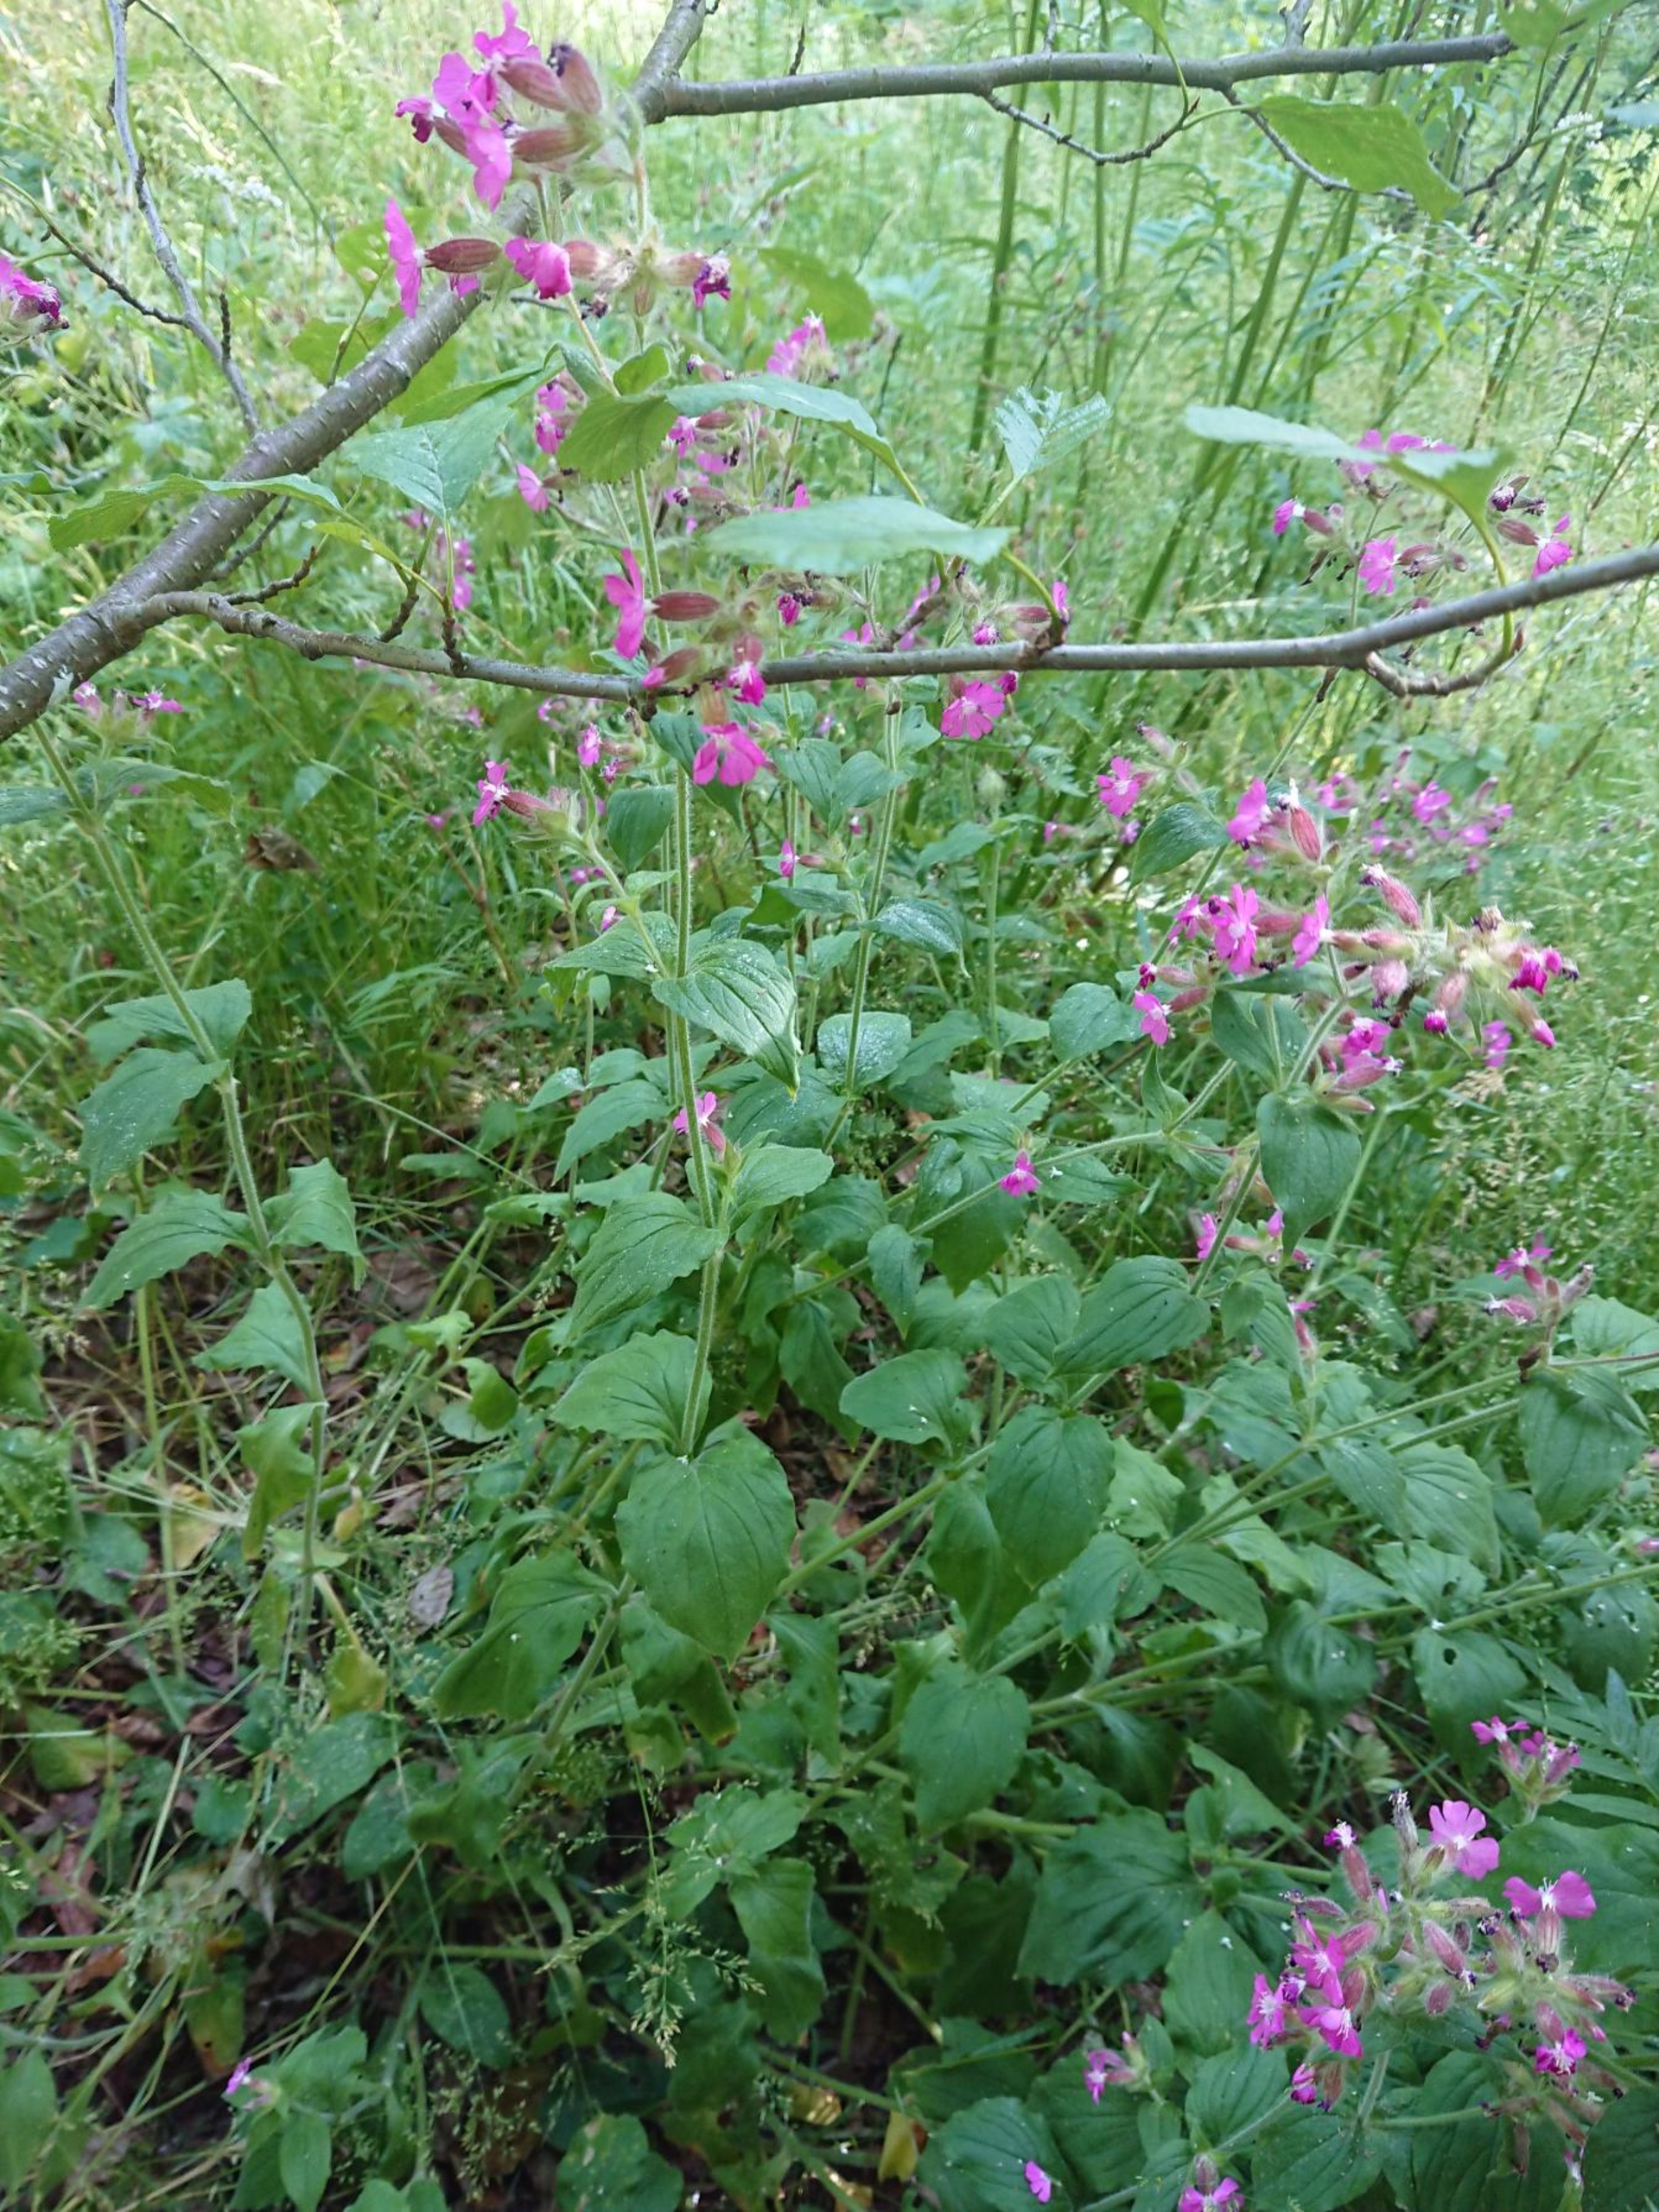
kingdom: Plantae
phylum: Tracheophyta
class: Magnoliopsida
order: Caryophyllales
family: Caryophyllaceae
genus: Silene
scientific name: Silene dioica
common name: Dagpragtstjerne
